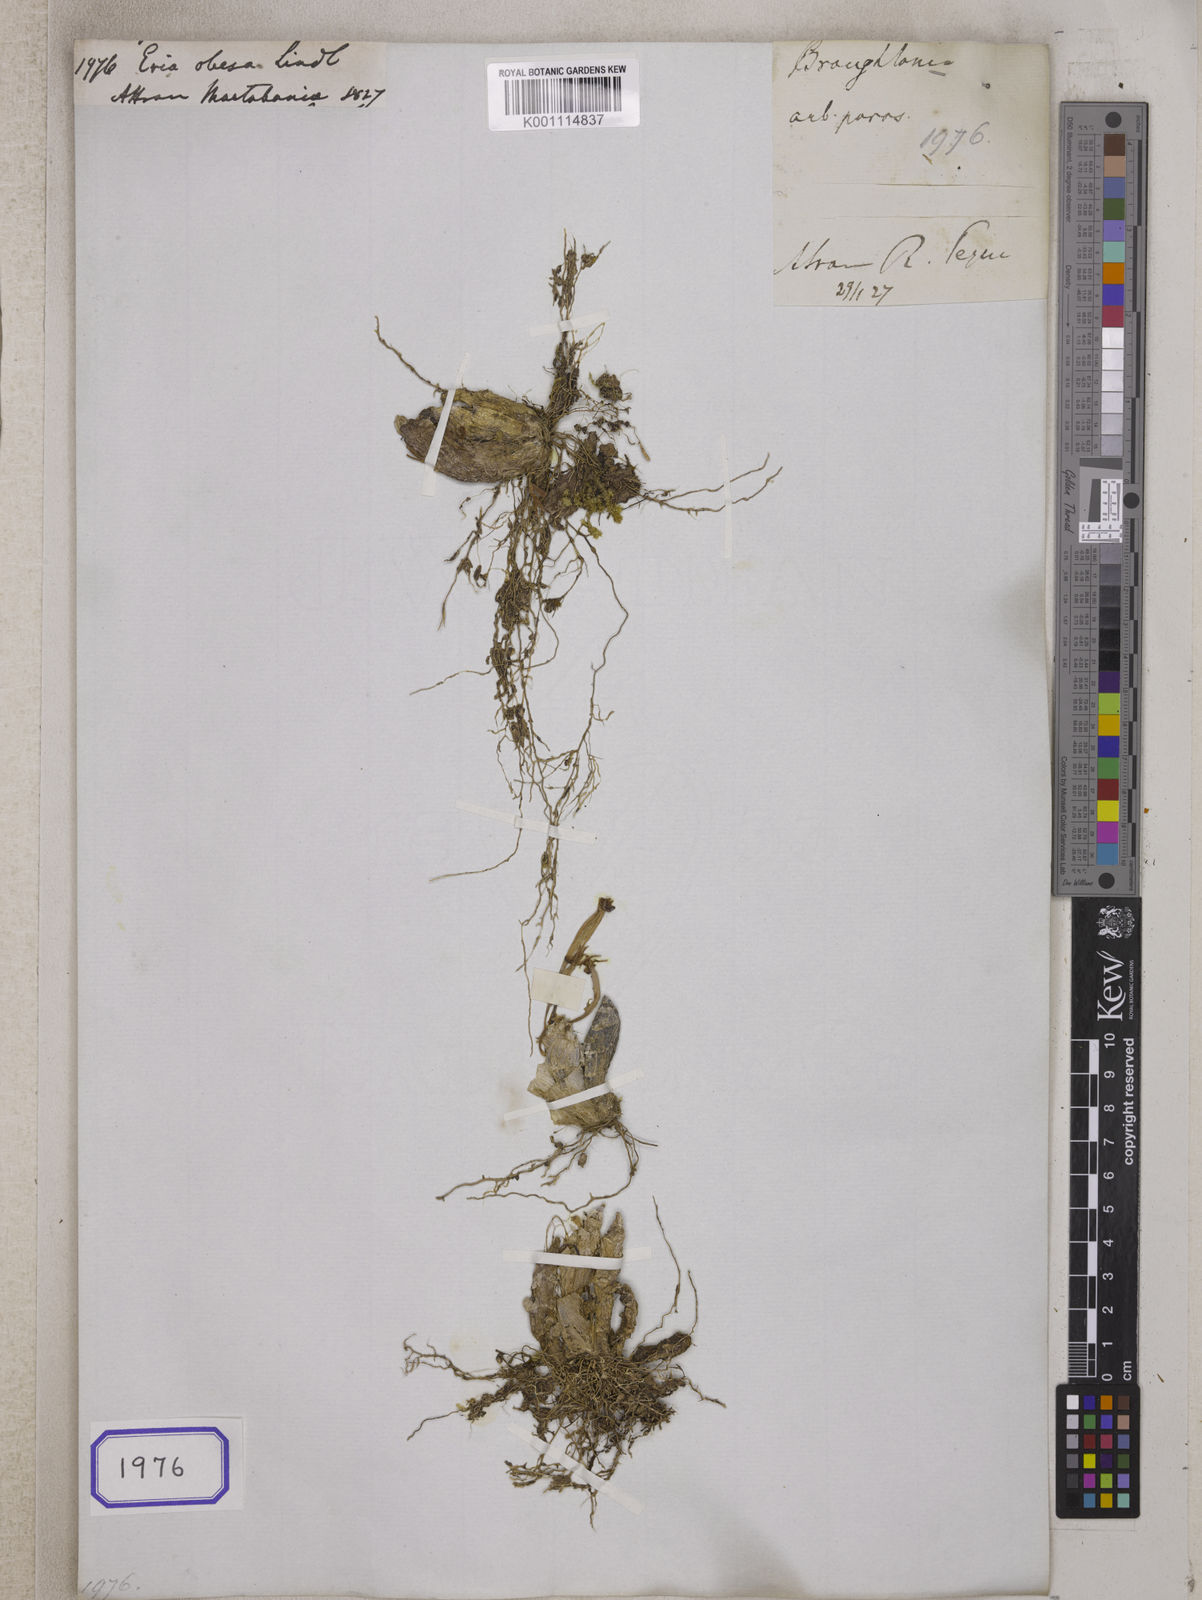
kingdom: Plantae
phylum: Tracheophyta
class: Liliopsida
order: Asparagales
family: Orchidaceae
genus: Pinalia
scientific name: Pinalia obesa
